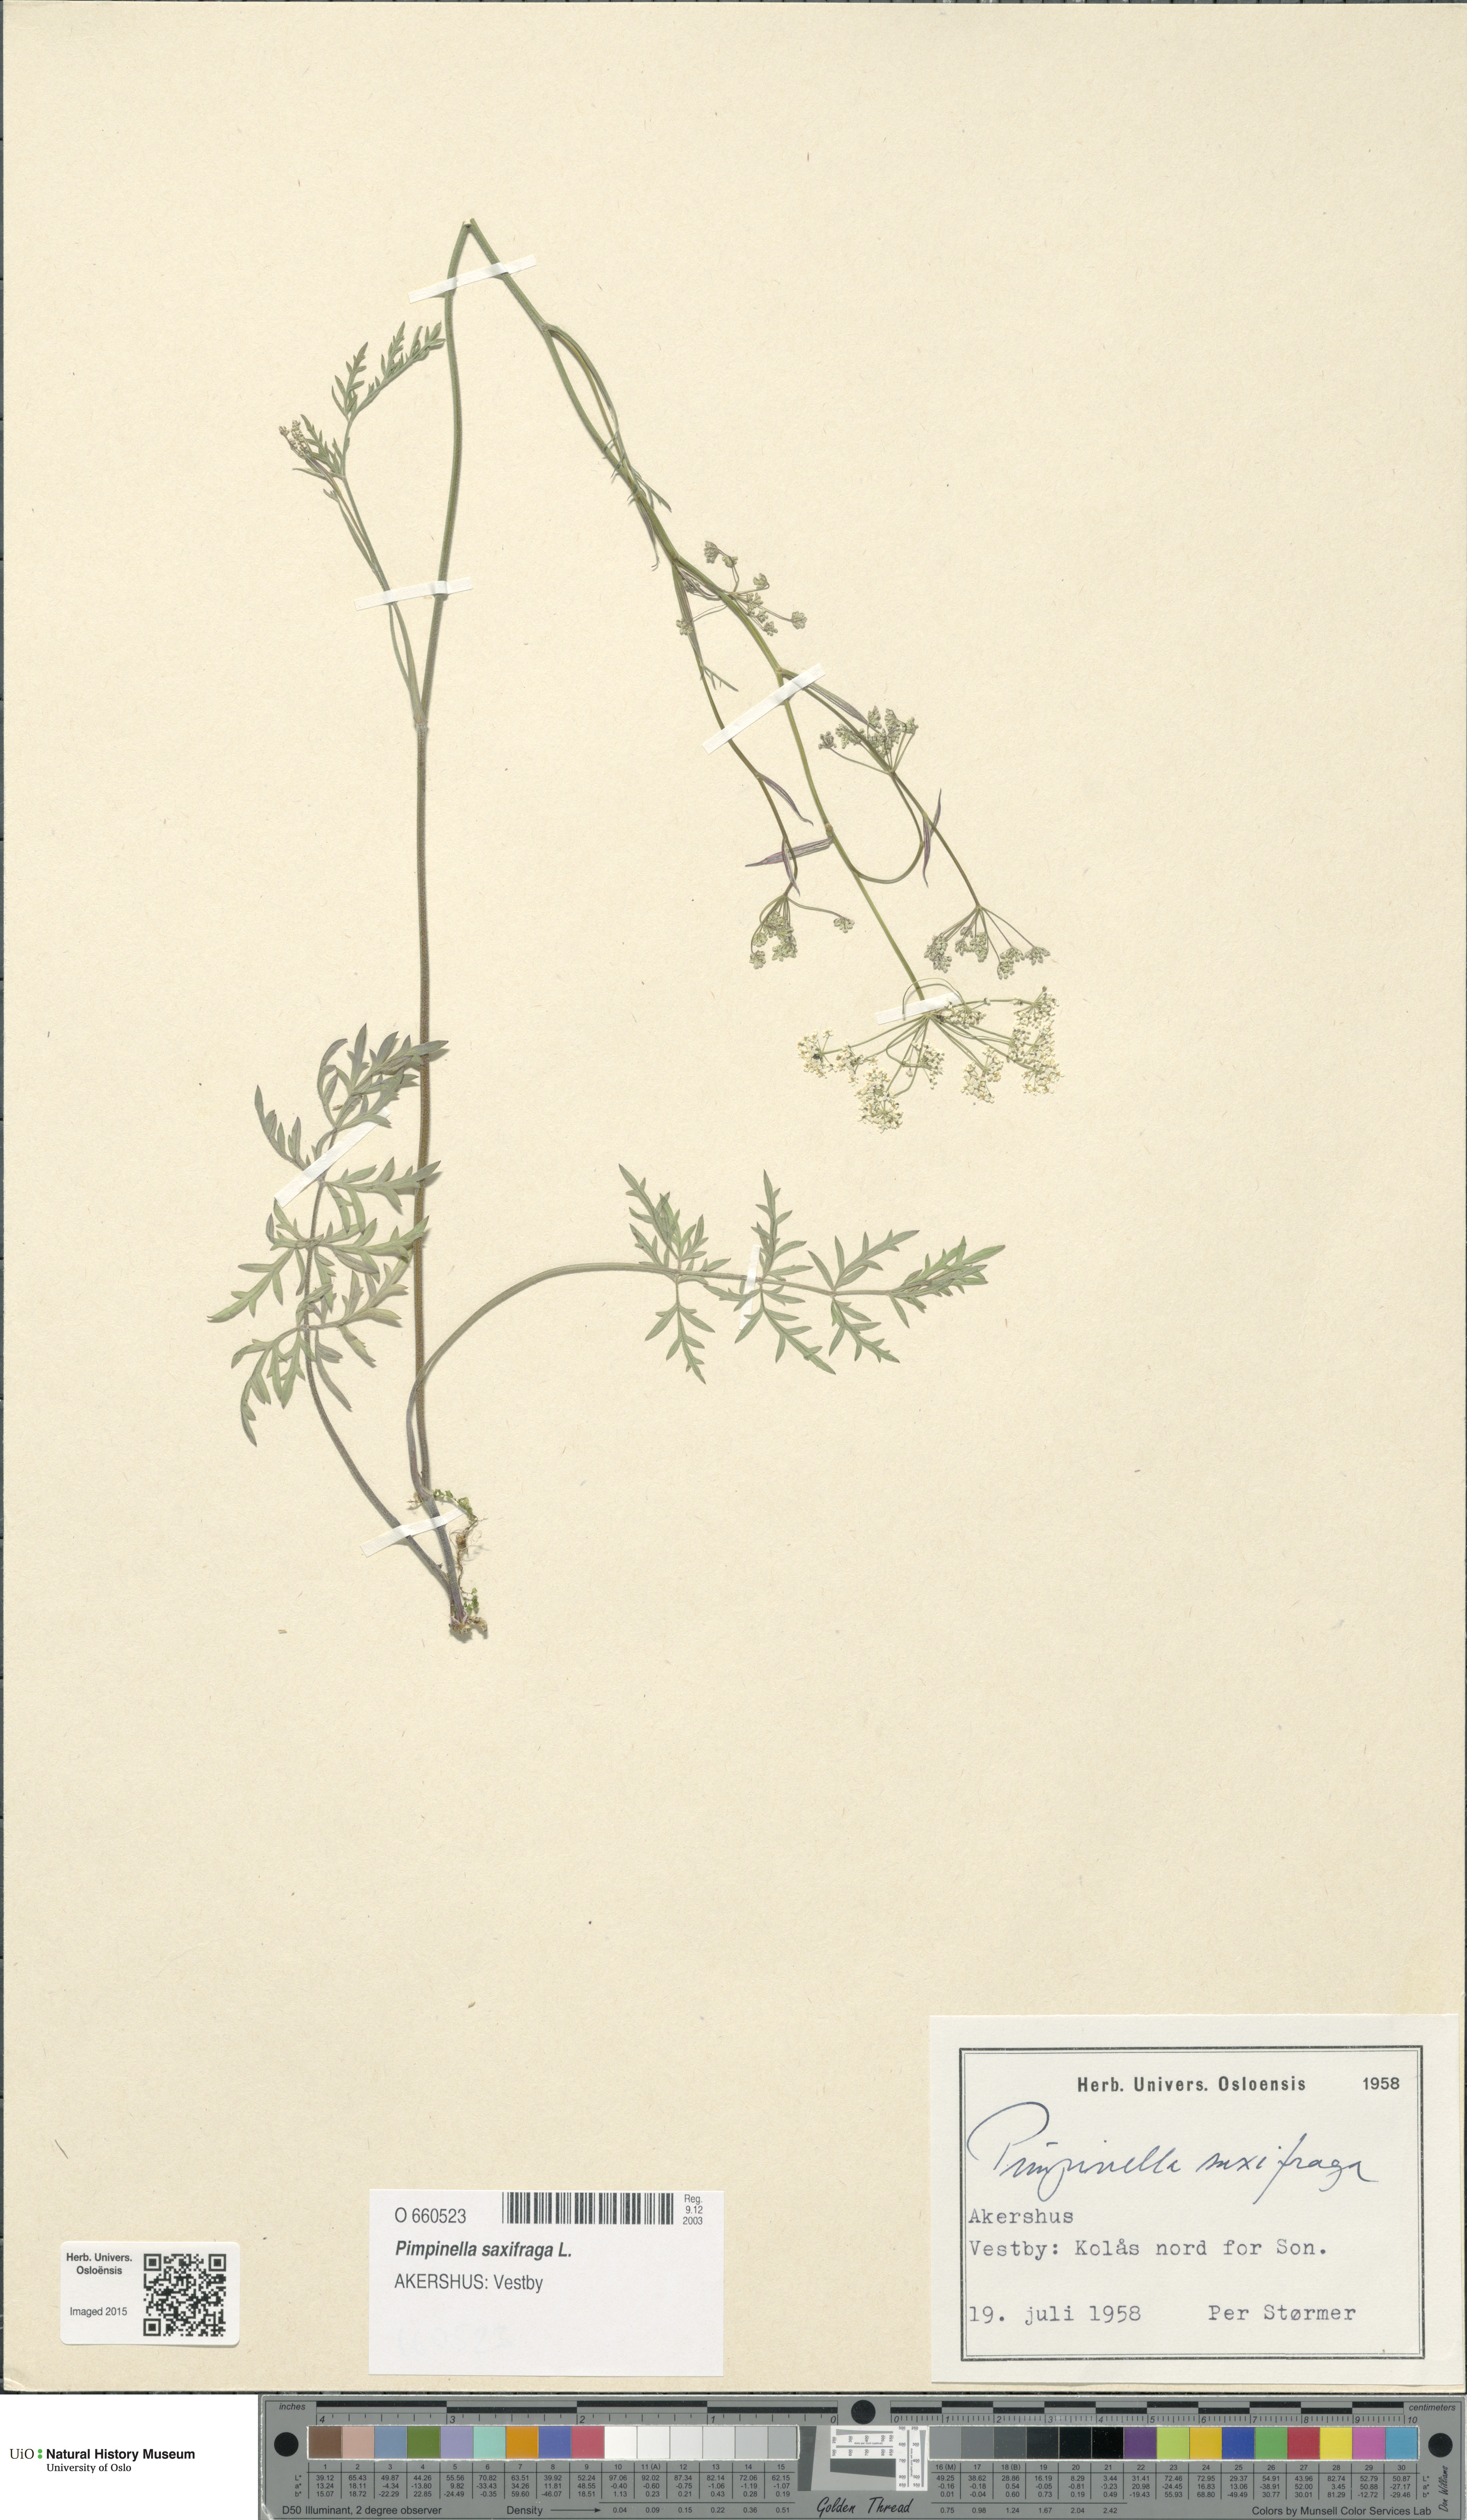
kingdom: Plantae
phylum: Tracheophyta
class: Magnoliopsida
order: Apiales
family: Apiaceae
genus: Pimpinella
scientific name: Pimpinella saxifraga
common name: Burnet-saxifrage
